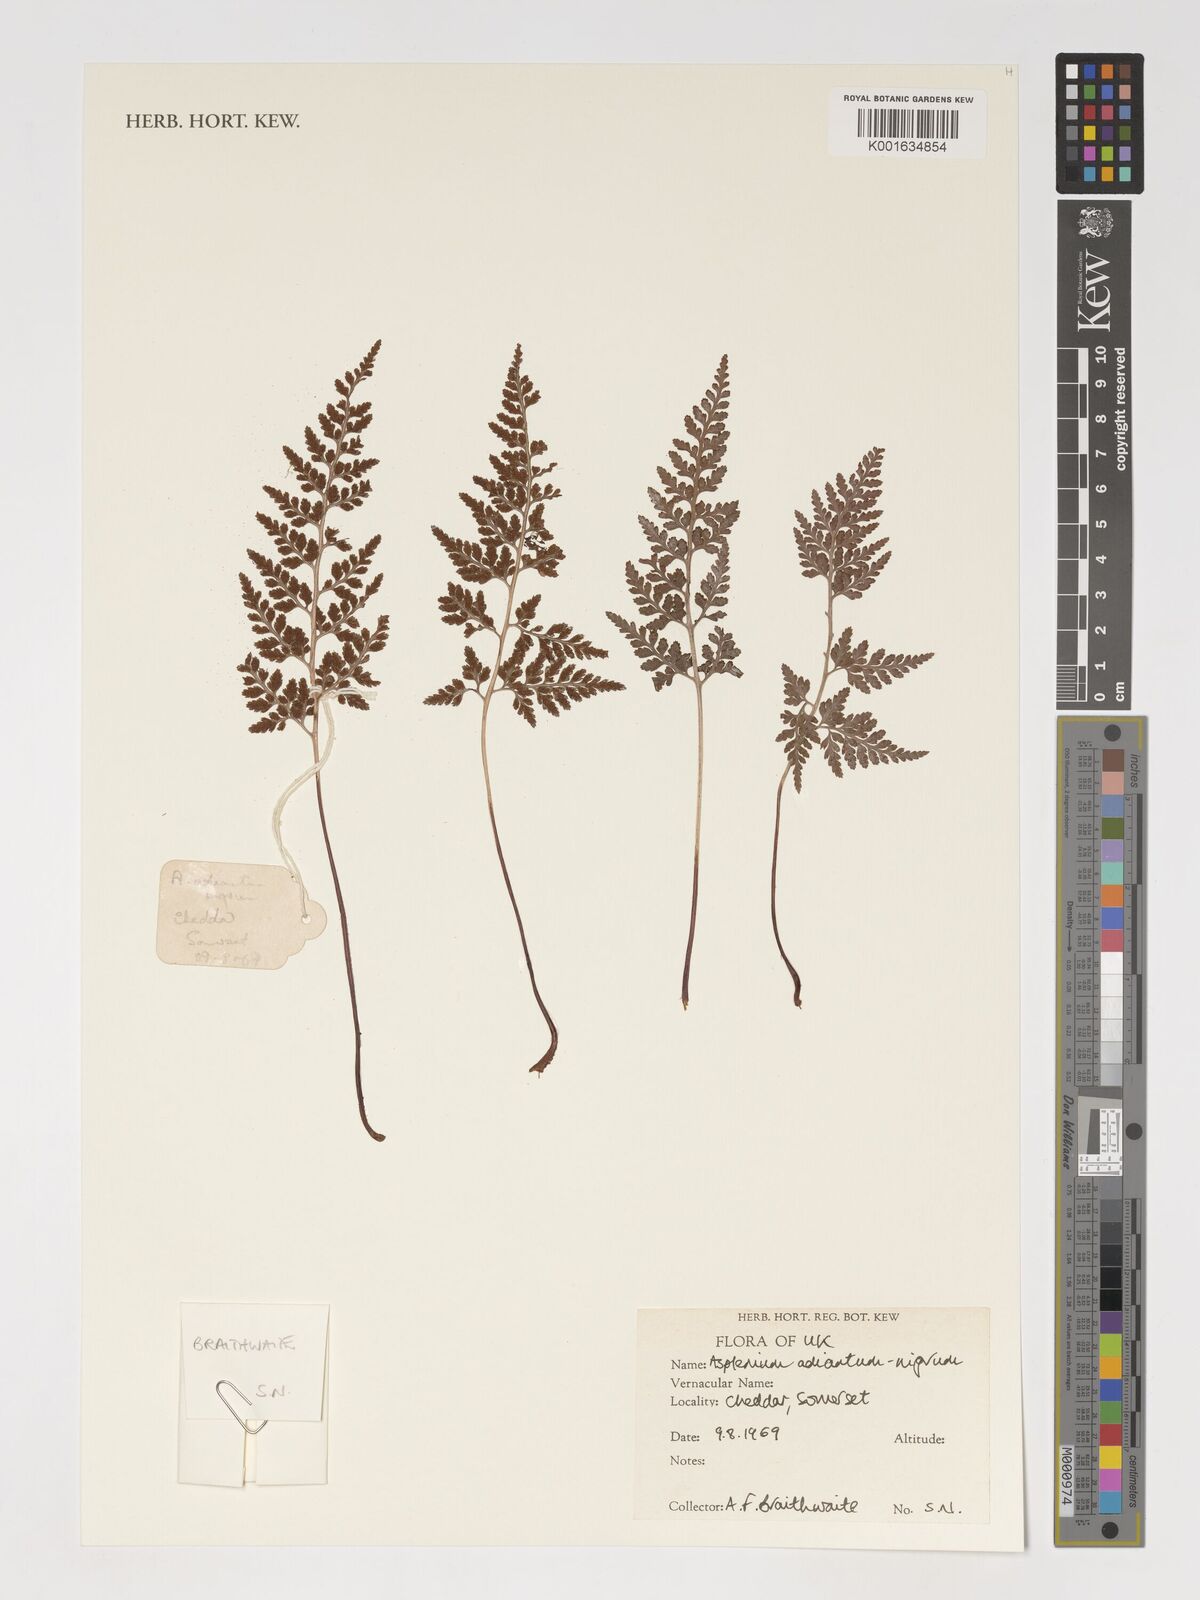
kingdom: Plantae
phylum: Tracheophyta
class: Polypodiopsida
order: Polypodiales
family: Aspleniaceae
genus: Asplenium
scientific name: Asplenium adiantum-nigrum
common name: Black spleenwort
